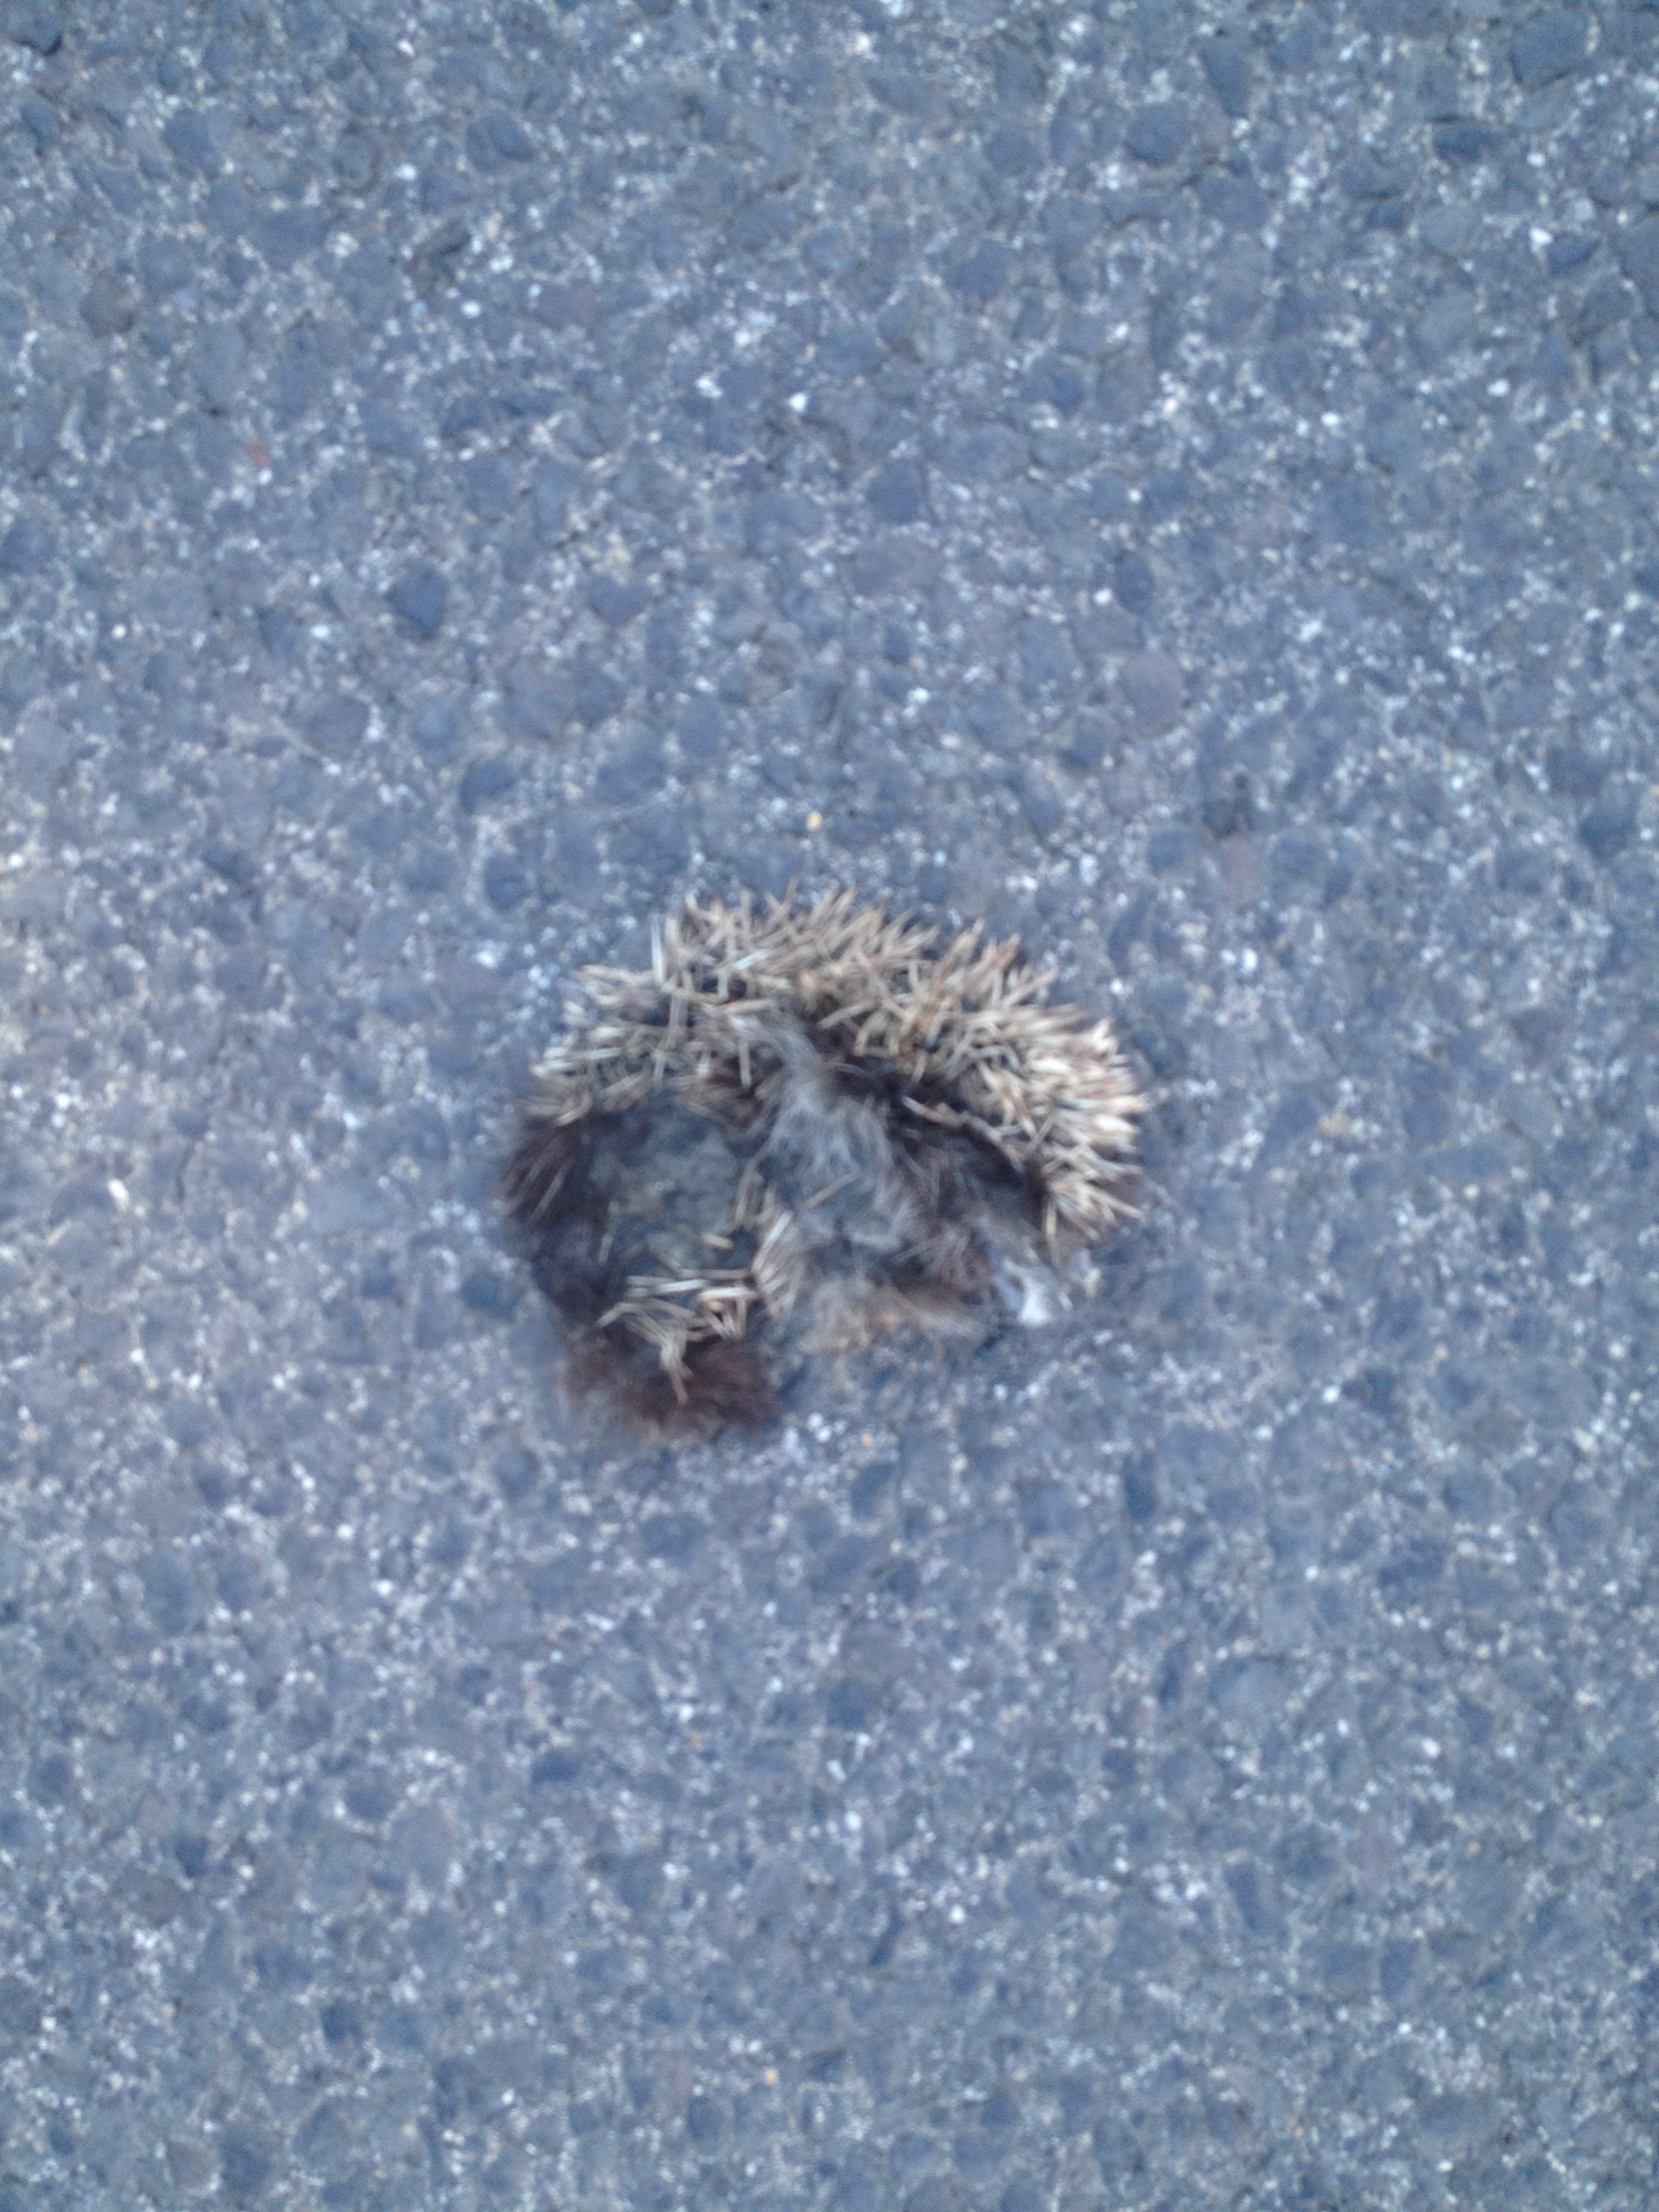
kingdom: Animalia
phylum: Chordata
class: Mammalia
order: Erinaceomorpha
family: Erinaceidae
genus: Erinaceus
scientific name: Erinaceus
